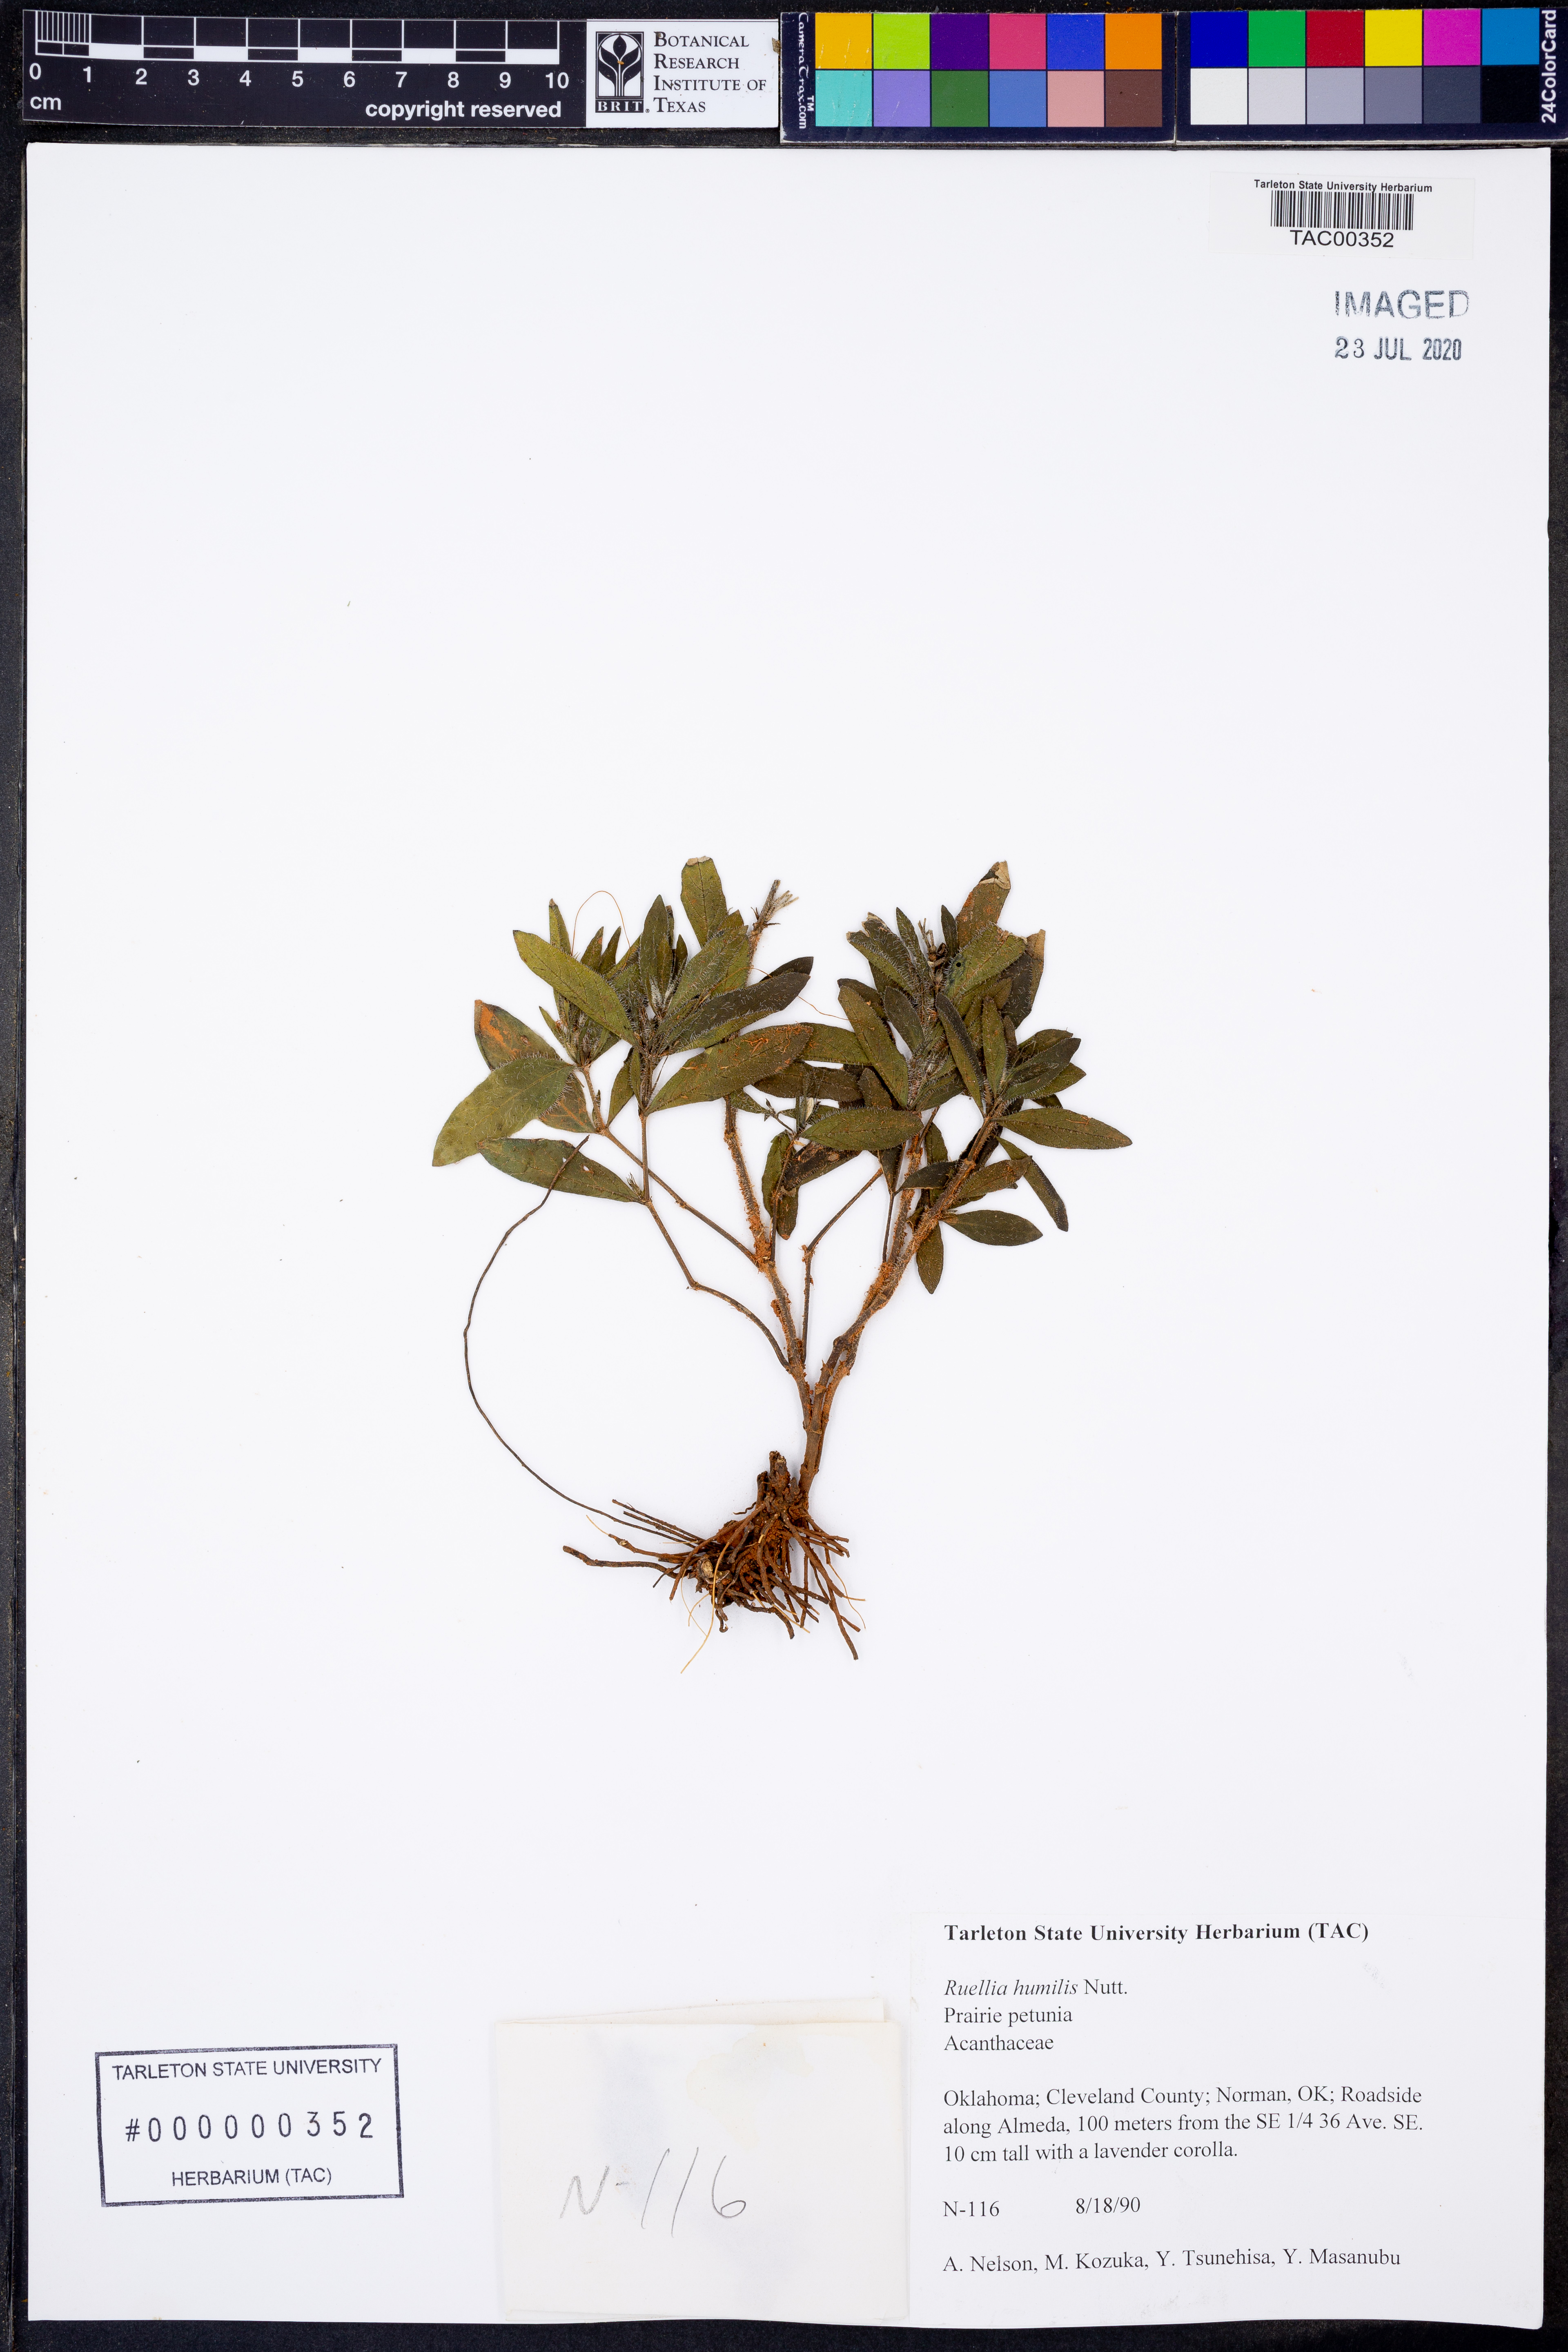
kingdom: Plantae
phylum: Tracheophyta
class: Magnoliopsida
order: Lamiales
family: Acanthaceae
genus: Ruellia
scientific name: Ruellia humilis
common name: Fringe-leaf ruellia
